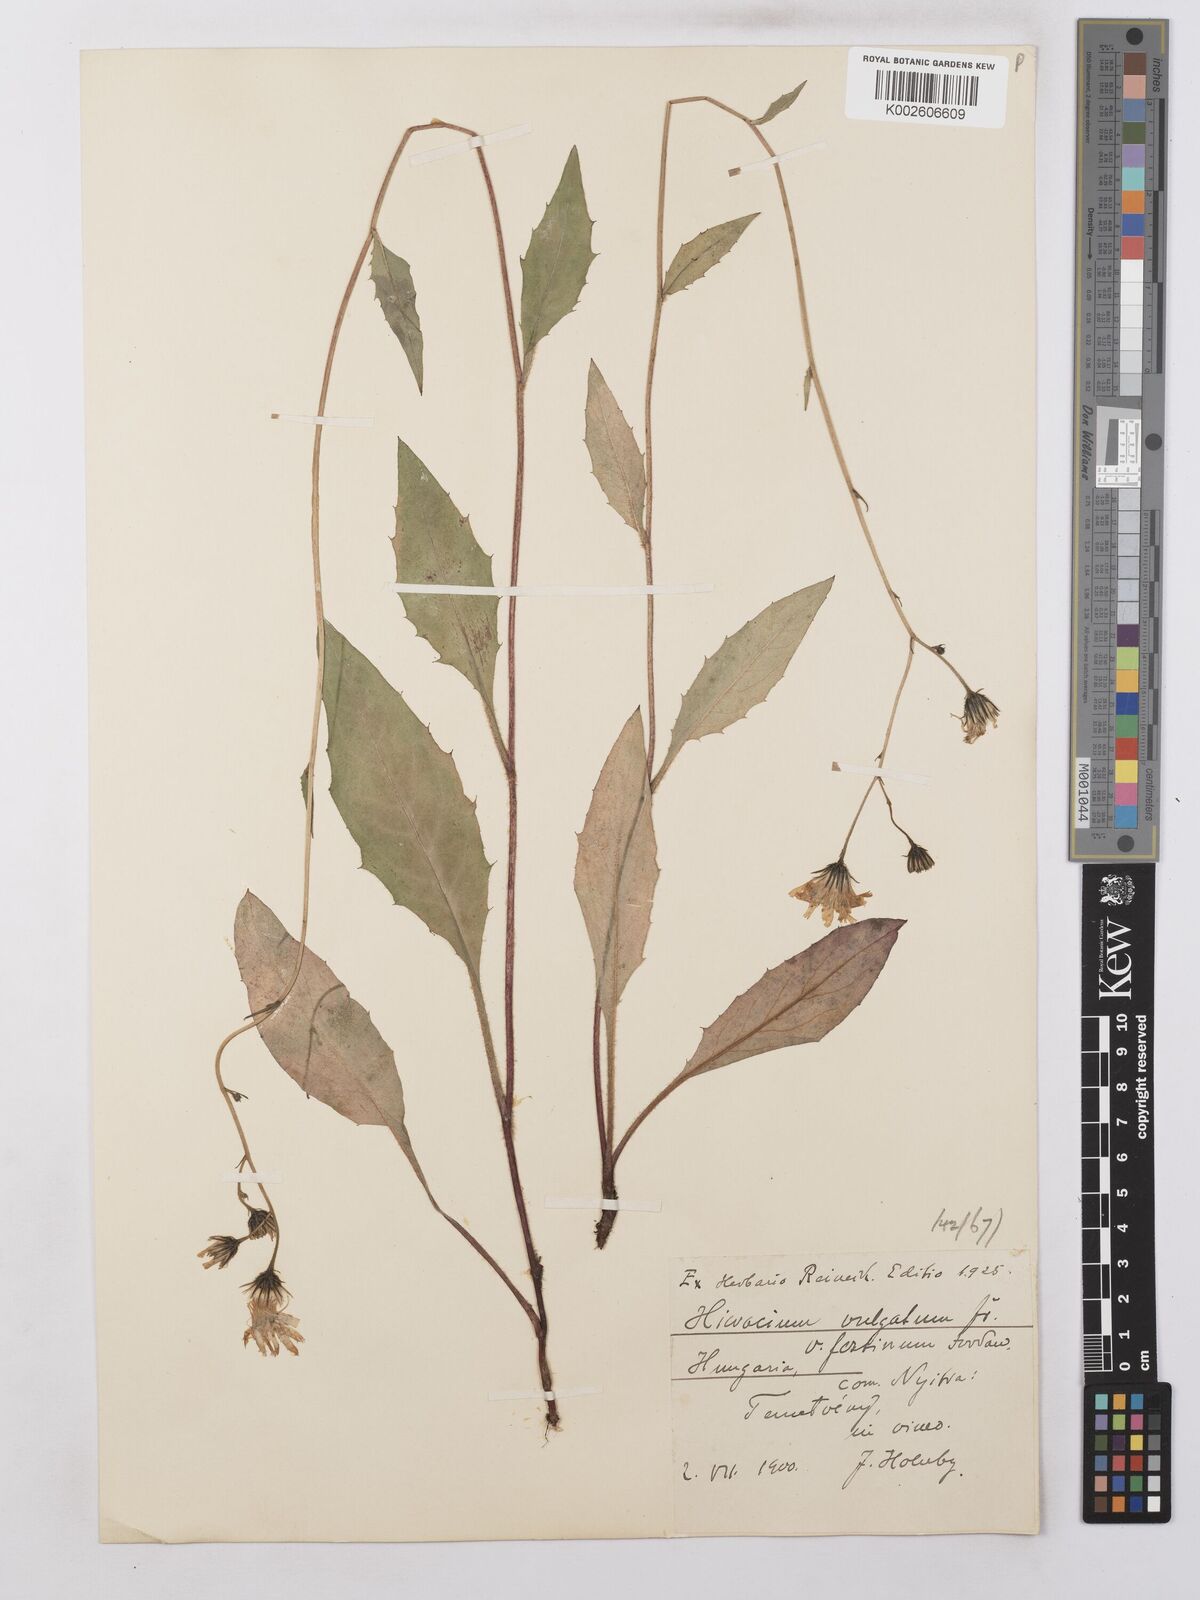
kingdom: Plantae
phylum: Tracheophyta
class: Magnoliopsida
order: Asterales
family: Asteraceae
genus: Hieracium
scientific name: Hieracium lachenalii
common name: Common hawkweed
